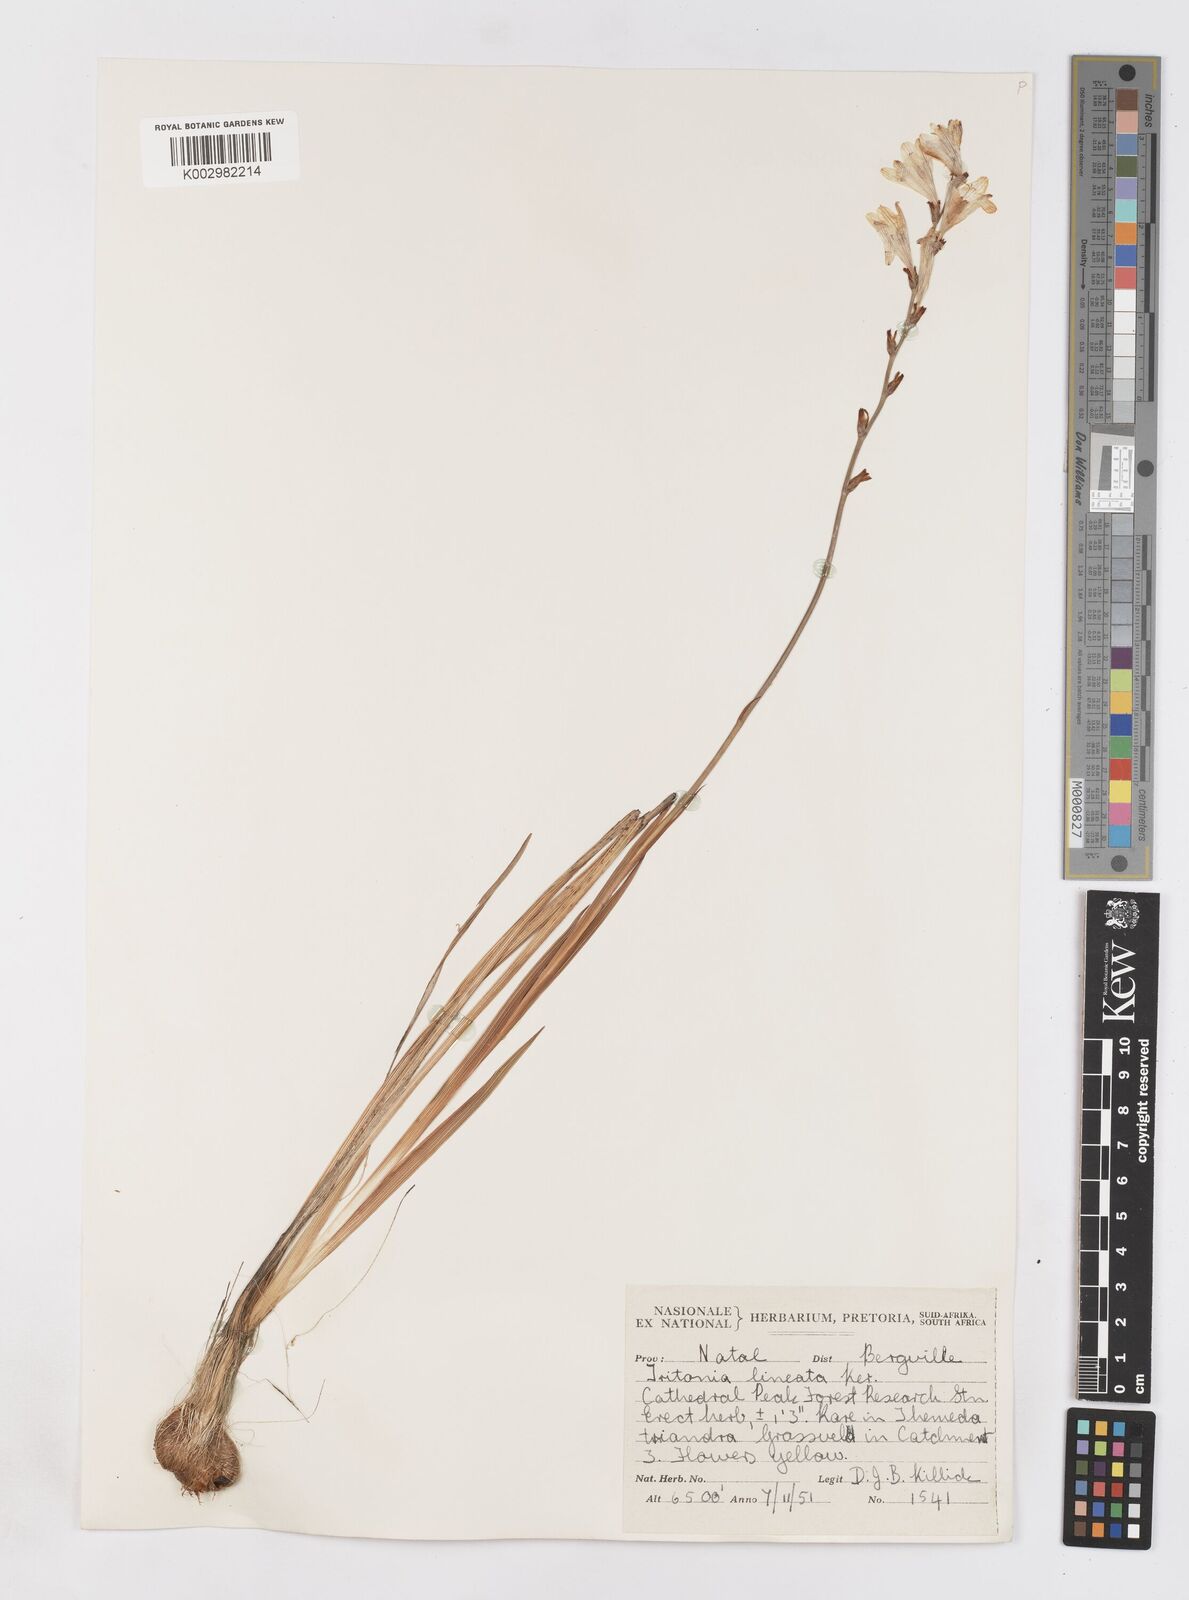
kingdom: Plantae
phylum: Tracheophyta
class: Liliopsida
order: Asparagales
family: Iridaceae
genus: Tritonia
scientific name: Tritonia gladiolaris
